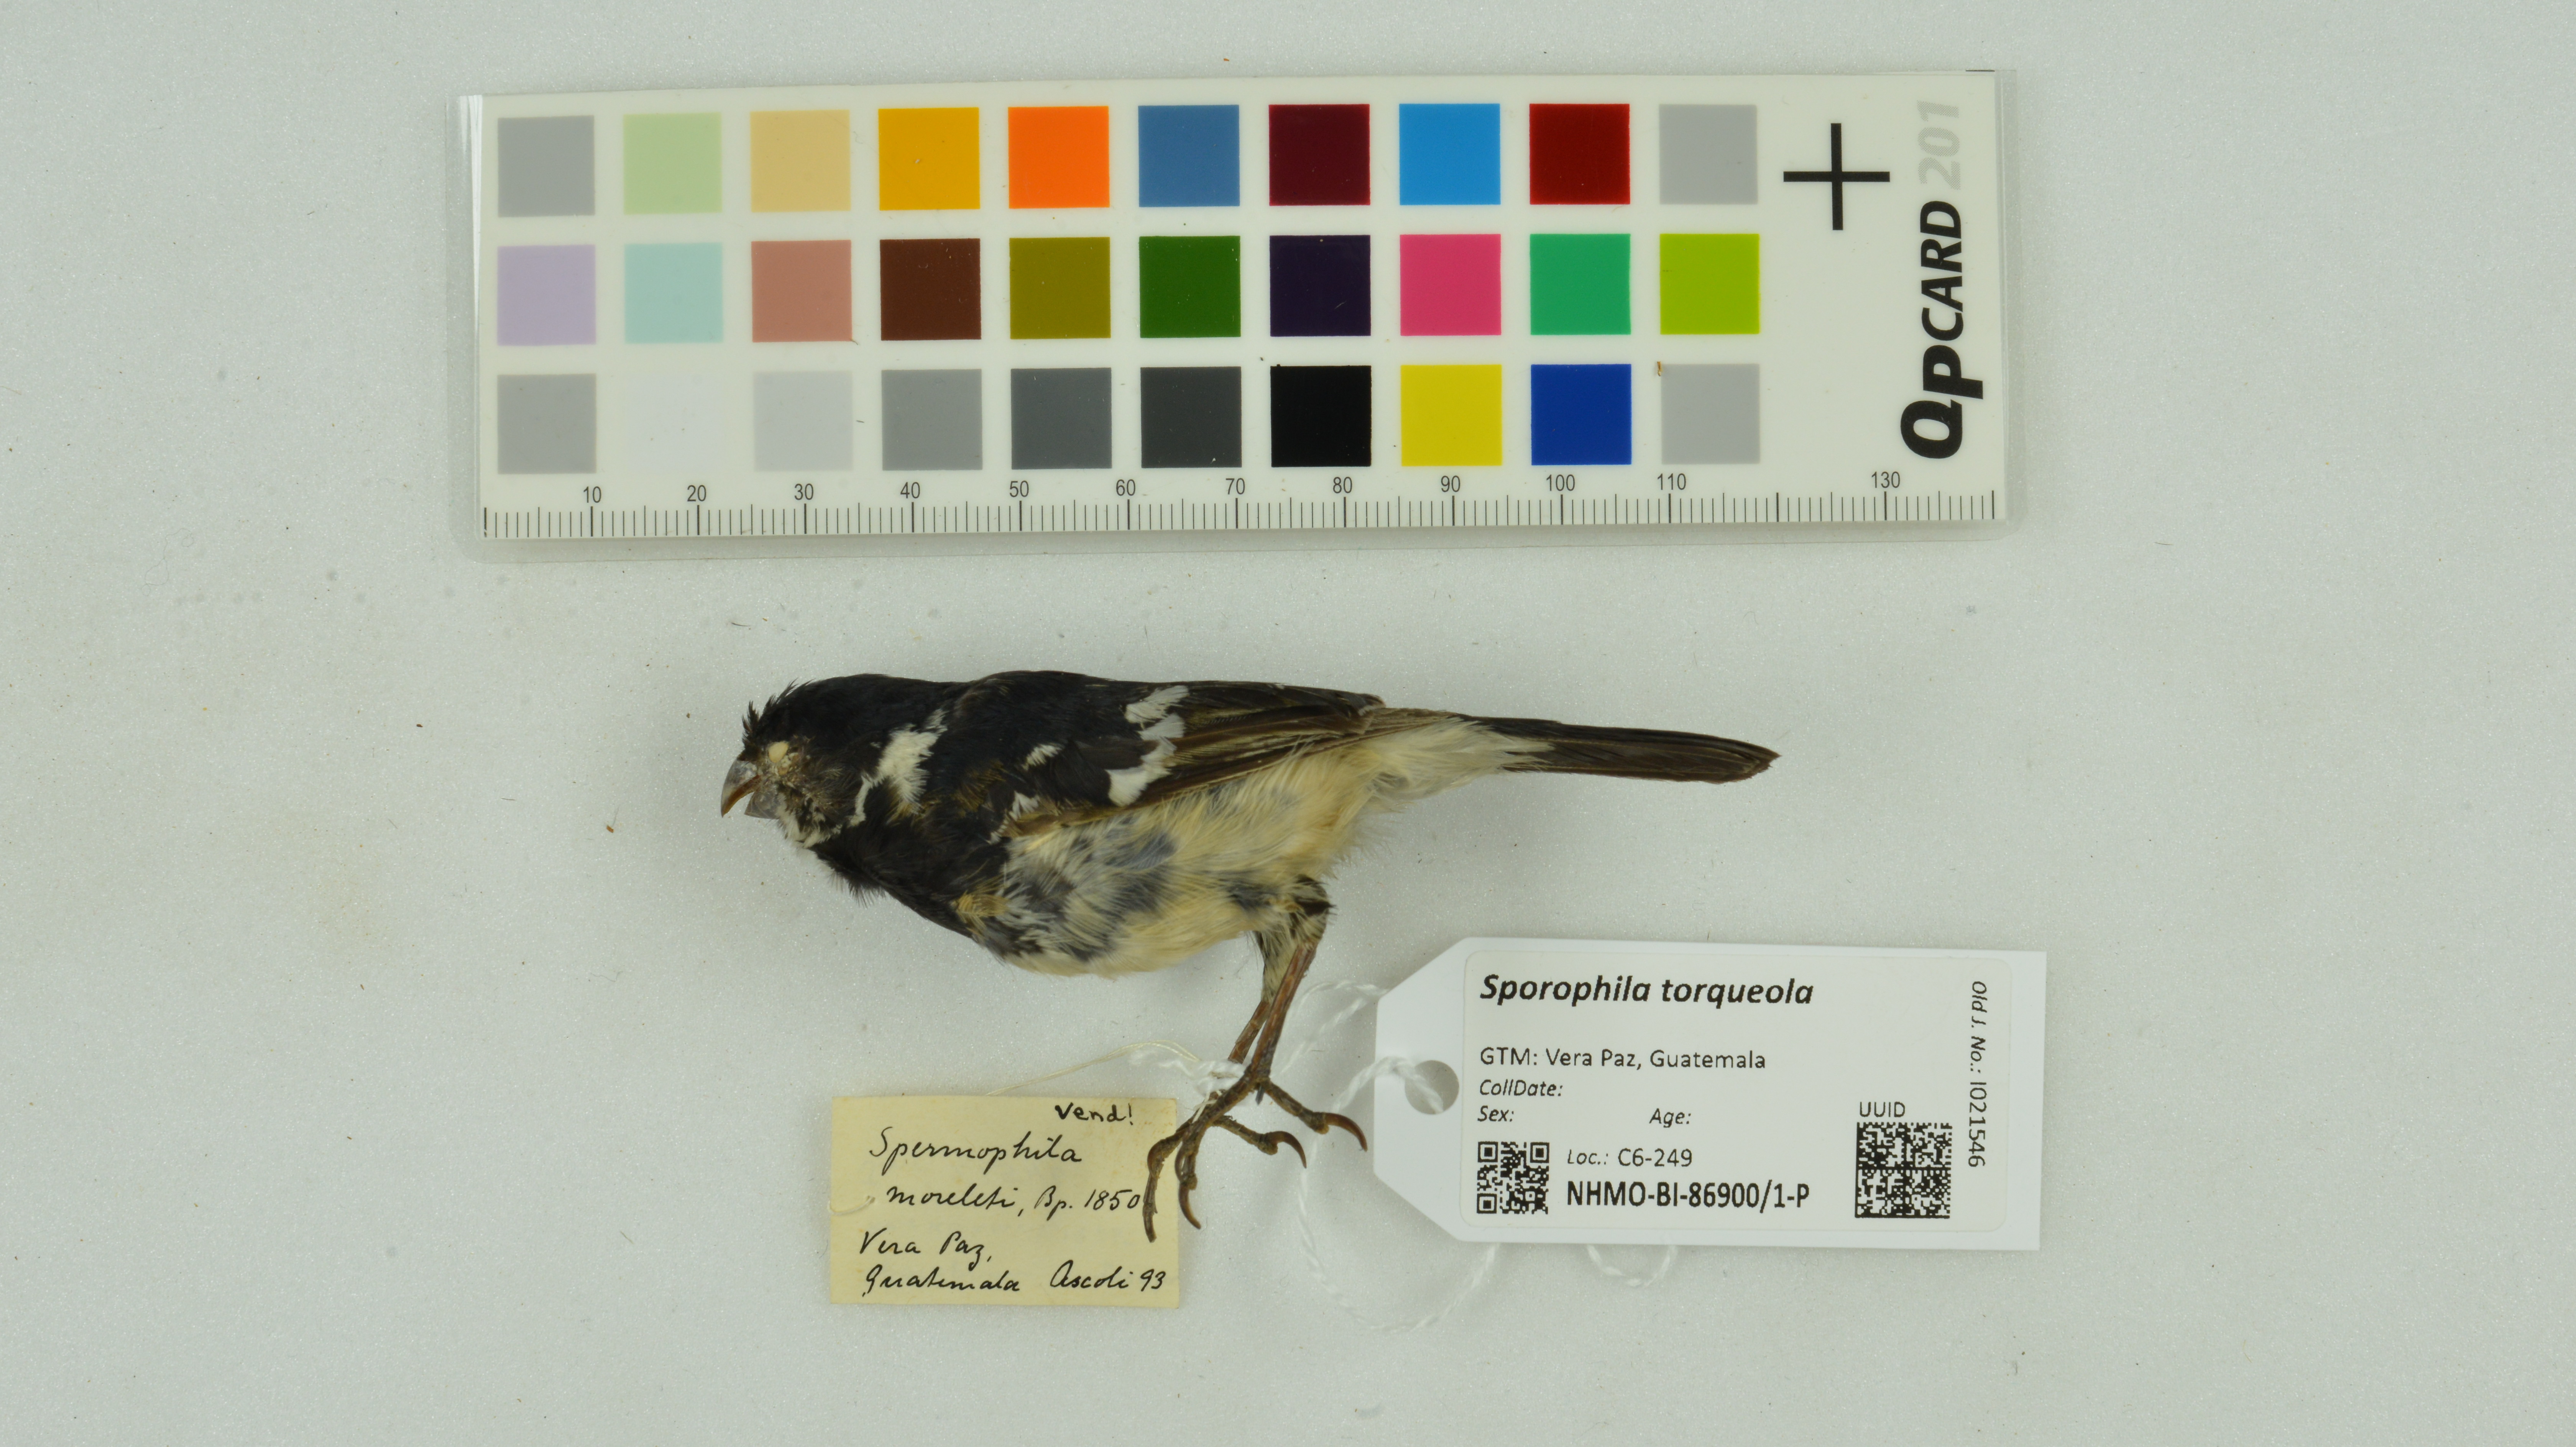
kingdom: Animalia
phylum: Chordata
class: Aves
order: Passeriformes
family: Thraupidae
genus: Sporophila
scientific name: Sporophila torqueola
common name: White-collared seedeater
